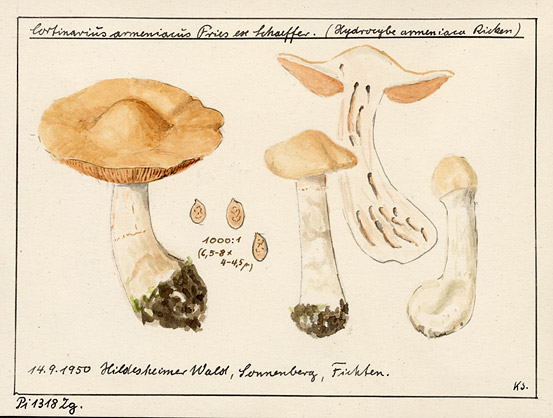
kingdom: Fungi
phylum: Basidiomycota
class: Agaricomycetes
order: Agaricales
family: Cortinariaceae
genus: Cortinarius
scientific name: Cortinarius armeniacus
